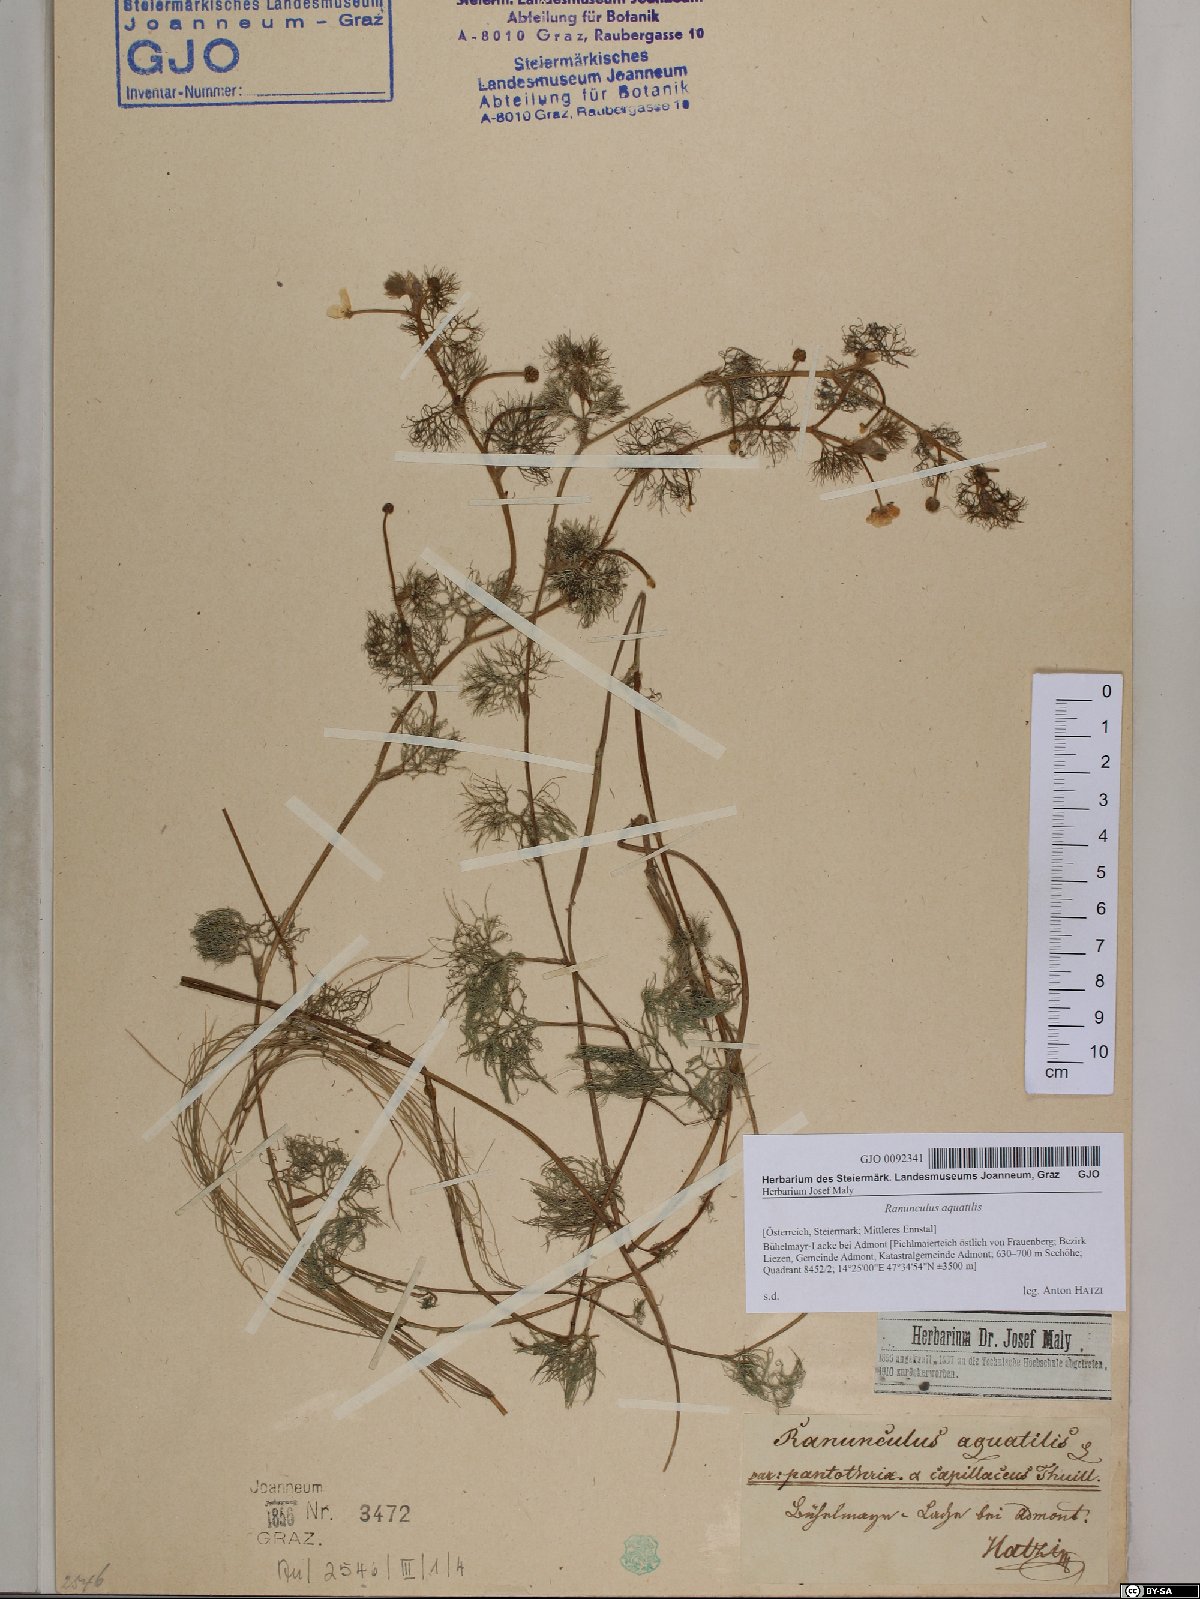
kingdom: Plantae
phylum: Tracheophyta
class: Magnoliopsida
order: Ranunculales
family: Ranunculaceae
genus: Ranunculus
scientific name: Ranunculus aquatilis
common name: Common water-crowfoot
